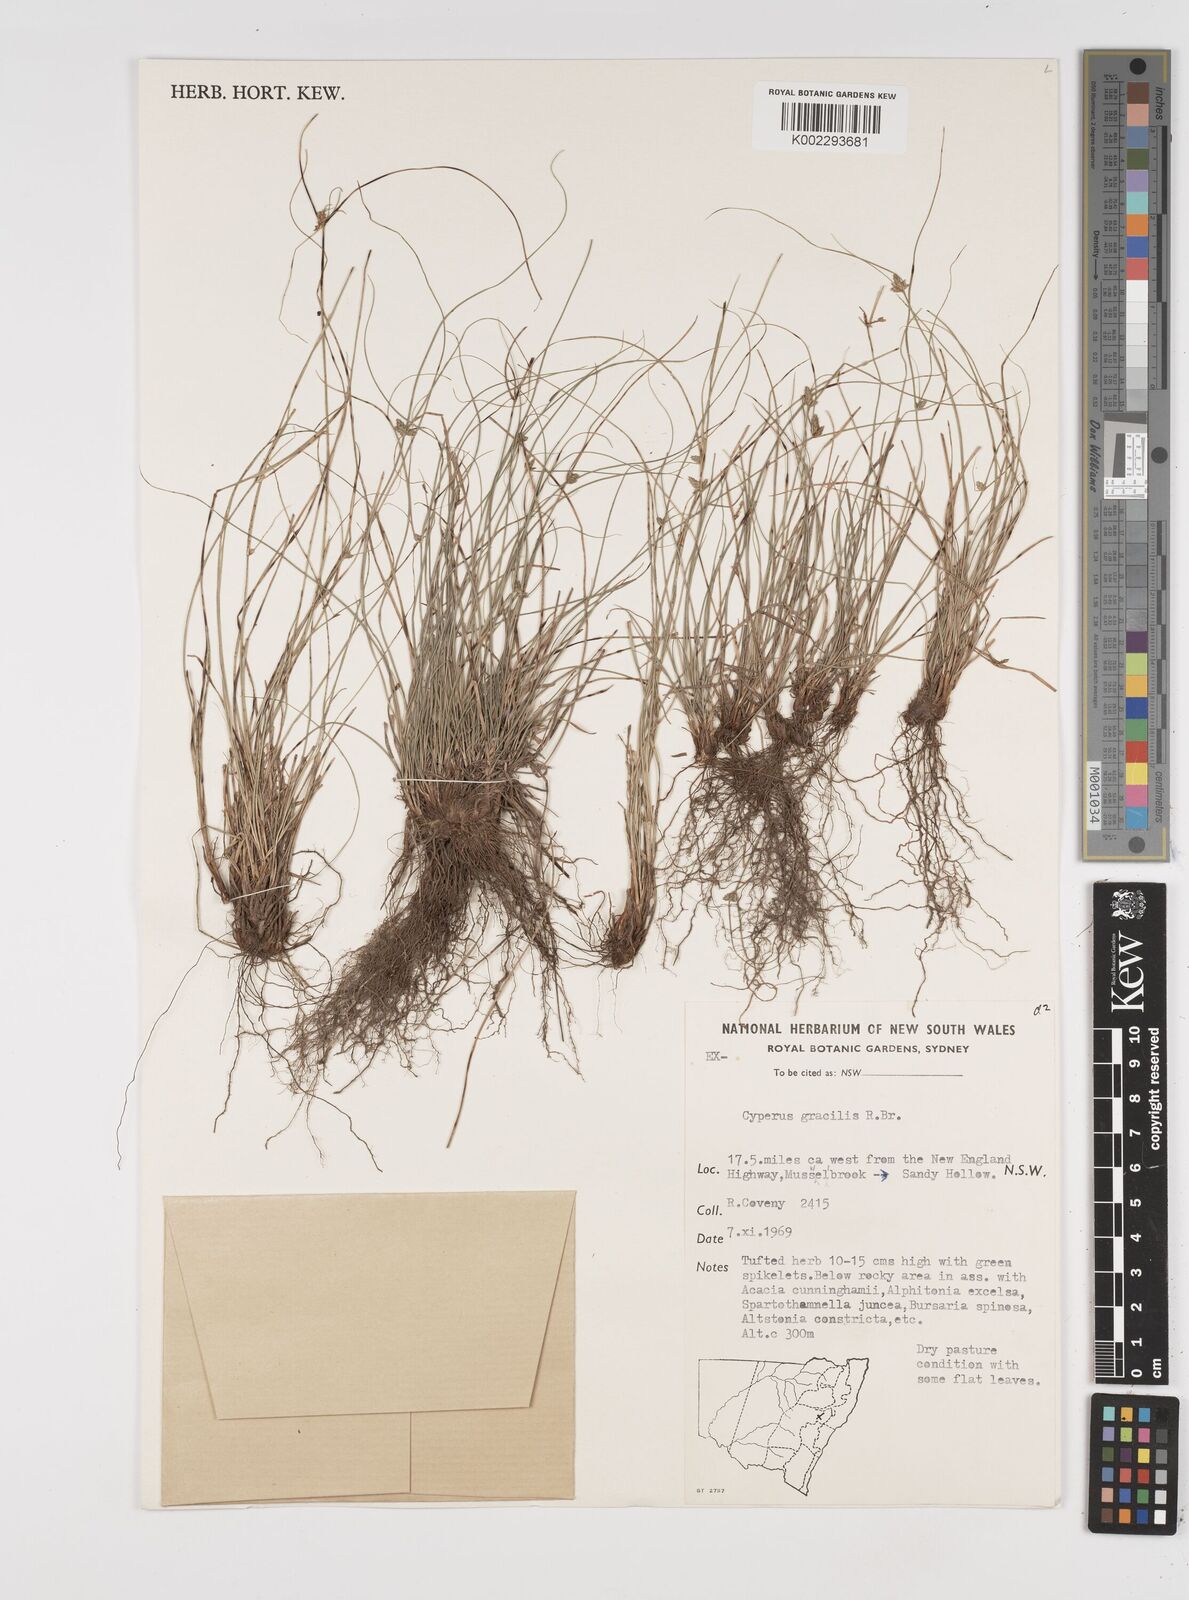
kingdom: Plantae
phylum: Tracheophyta
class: Liliopsida
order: Poales
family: Cyperaceae
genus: Cyperus
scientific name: Cyperus gracilis
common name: Slimjim flatsedge
